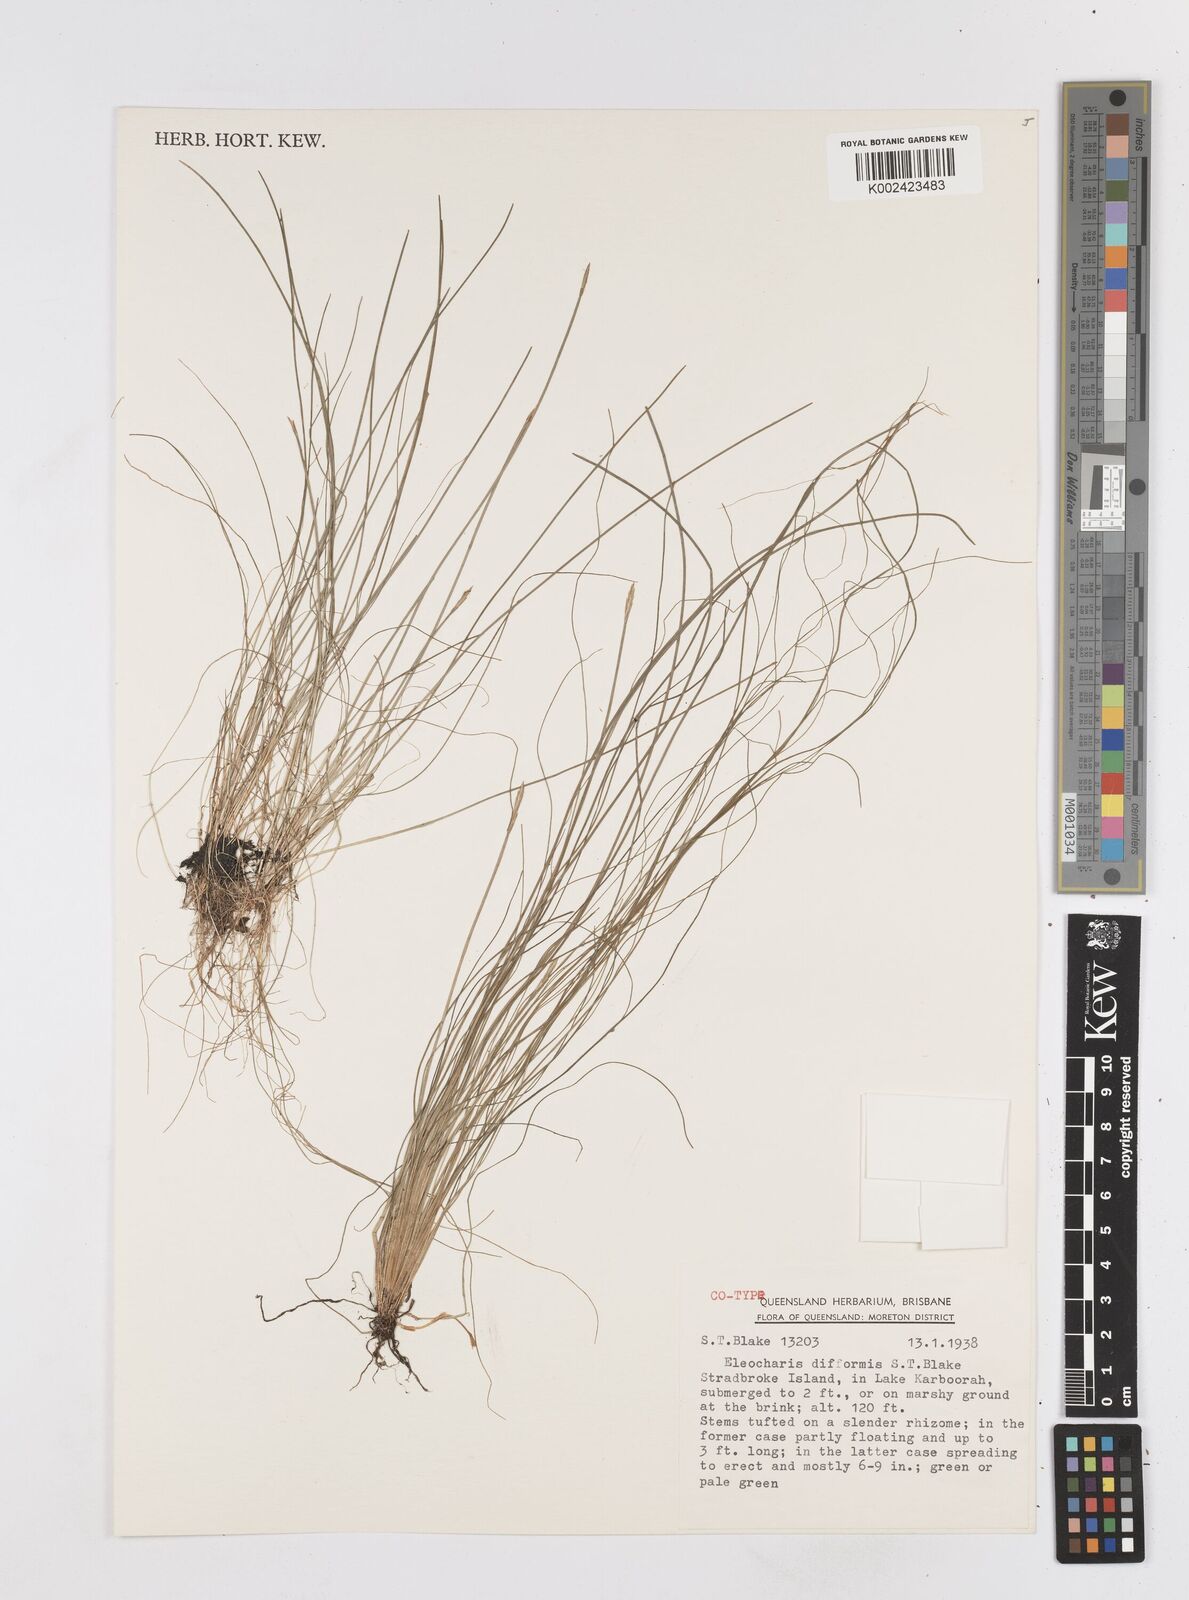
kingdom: Plantae
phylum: Tracheophyta
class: Liliopsida
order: Poales
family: Cyperaceae
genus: Eleocharis
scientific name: Eleocharis difformis
